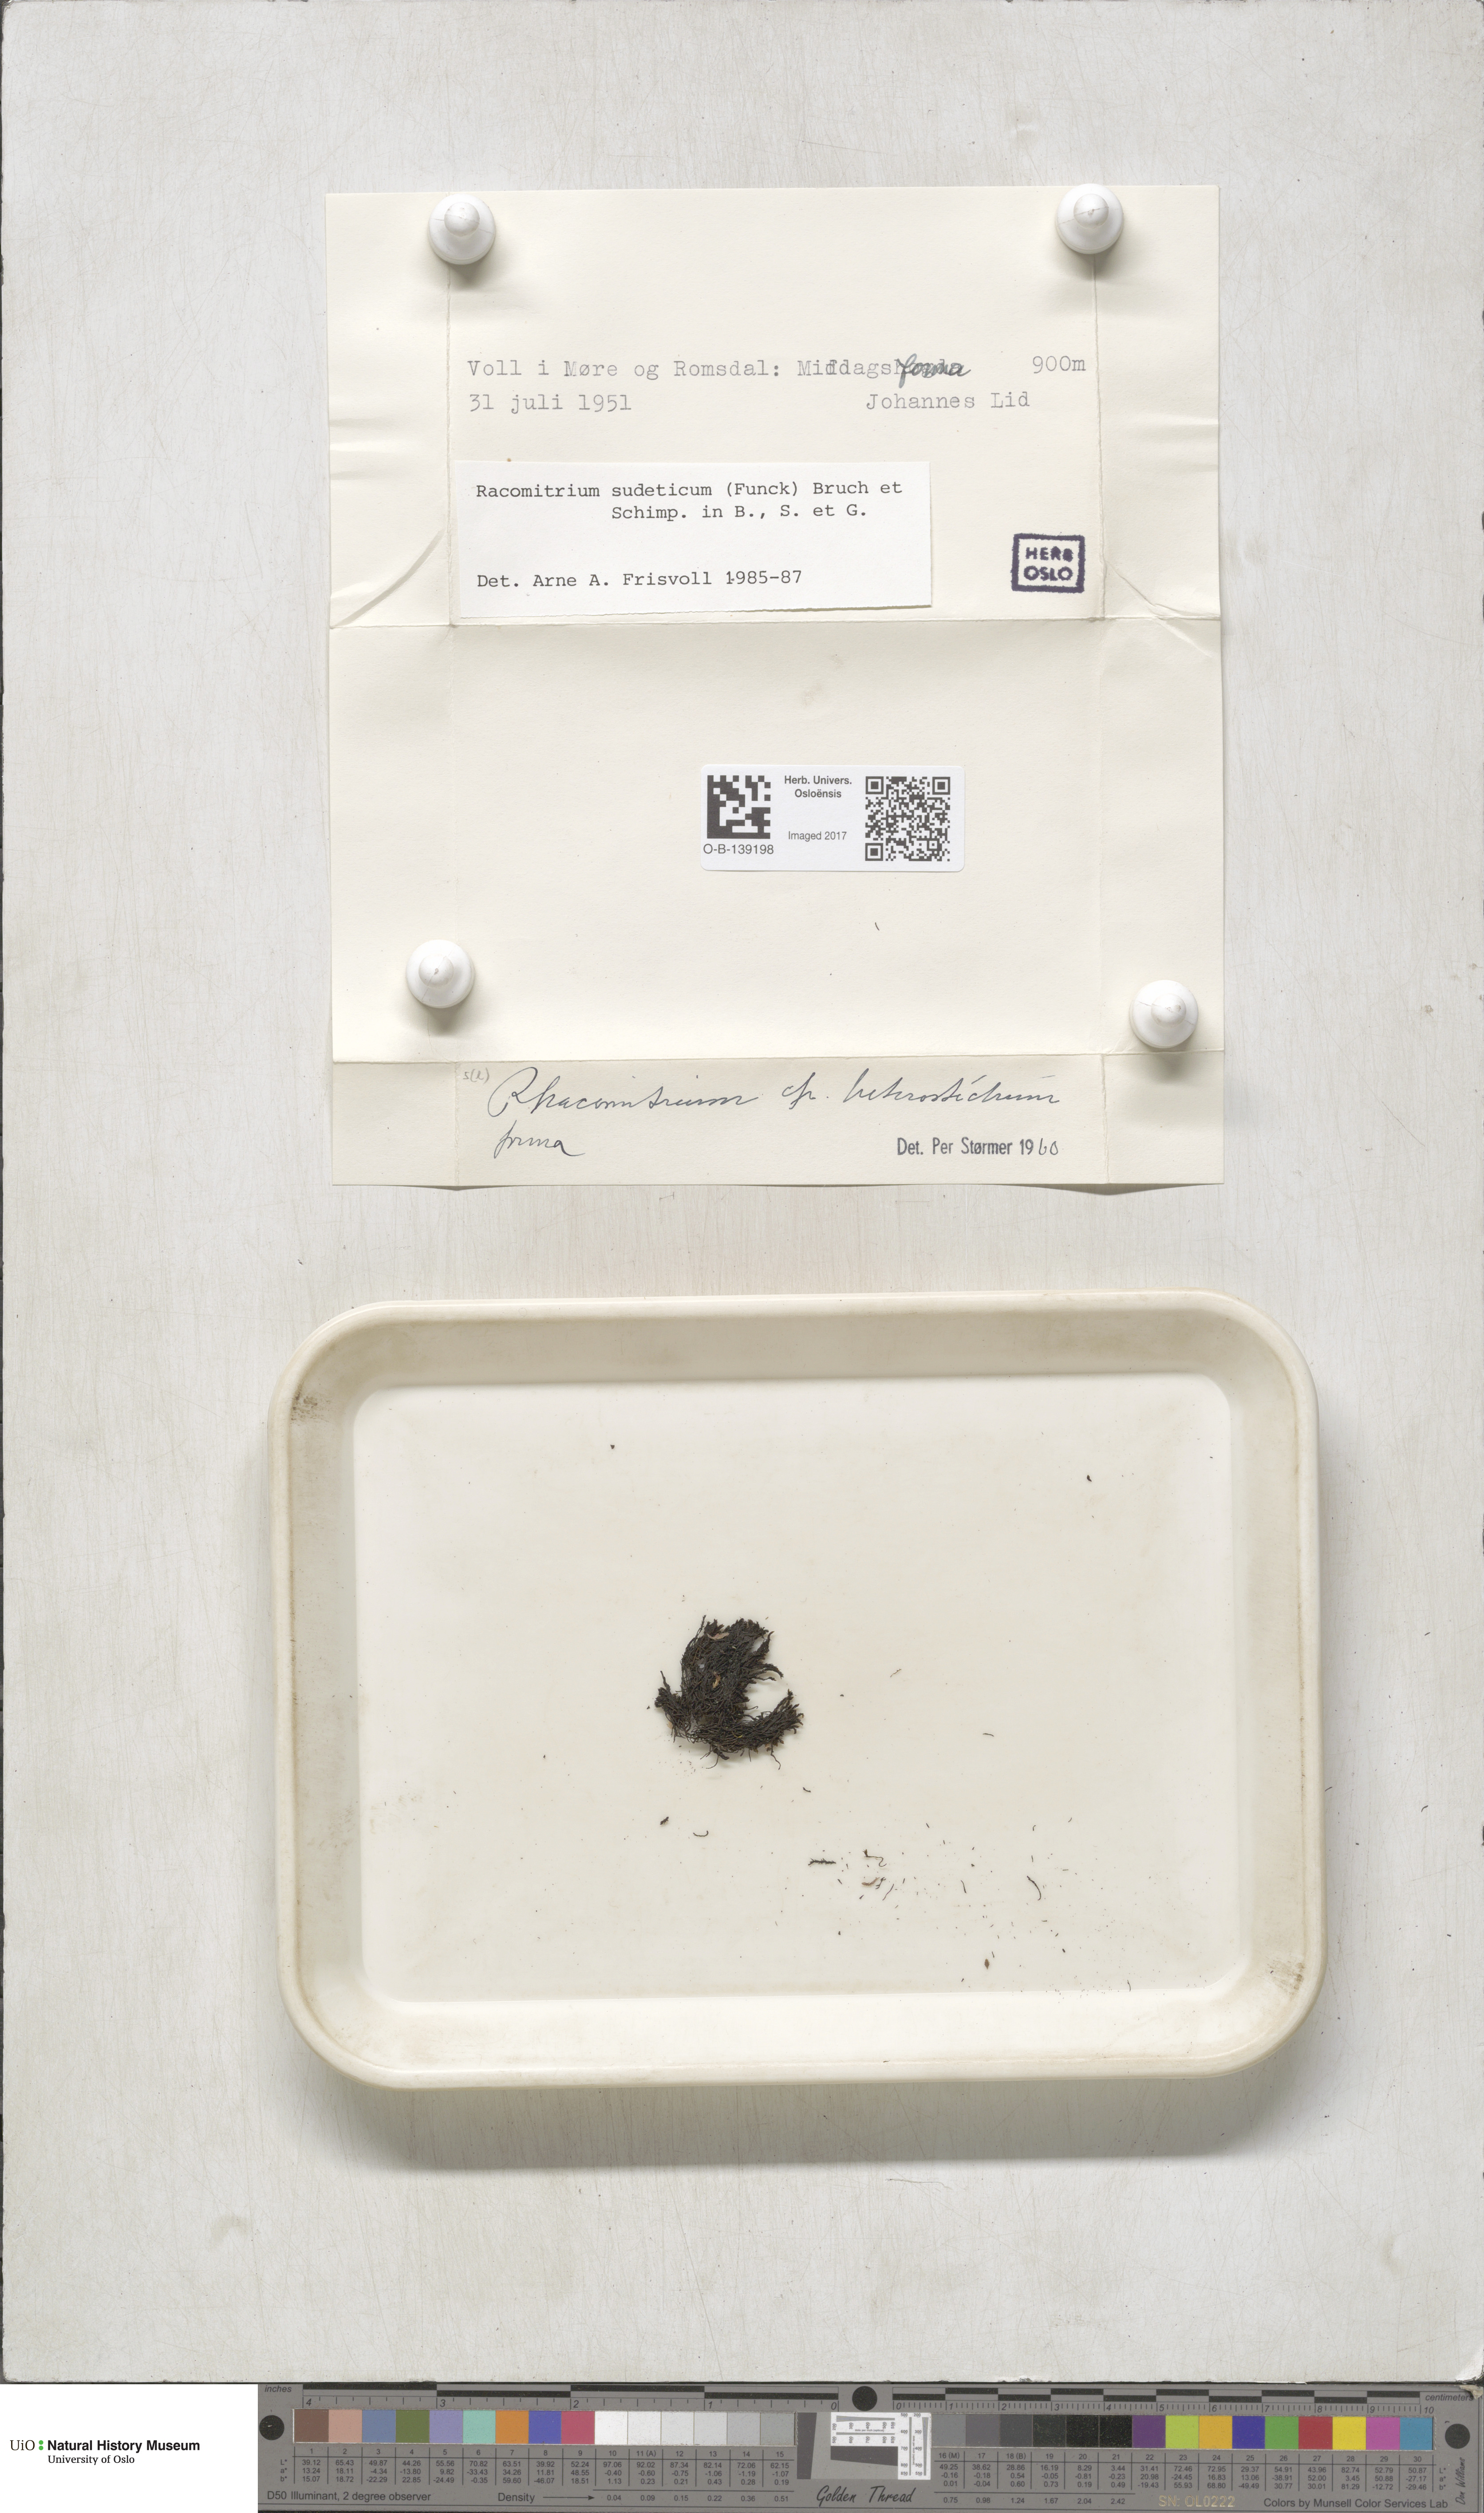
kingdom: Plantae
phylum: Bryophyta
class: Bryopsida
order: Grimmiales
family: Grimmiaceae
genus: Bucklandiella
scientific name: Bucklandiella sudetica
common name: Slender fringe-moss
